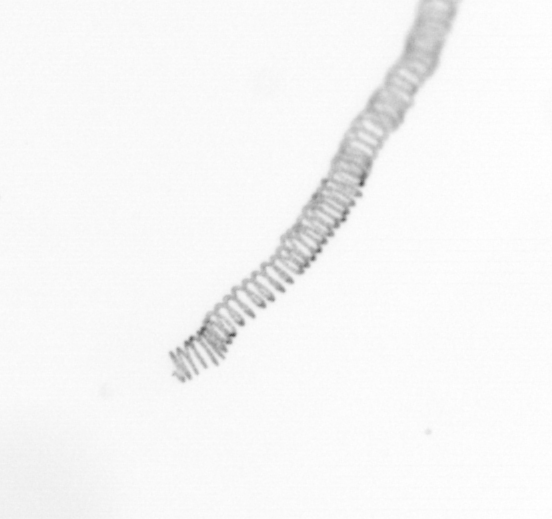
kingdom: Chromista
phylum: Ochrophyta
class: Bacillariophyceae
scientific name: Bacillariophyceae
